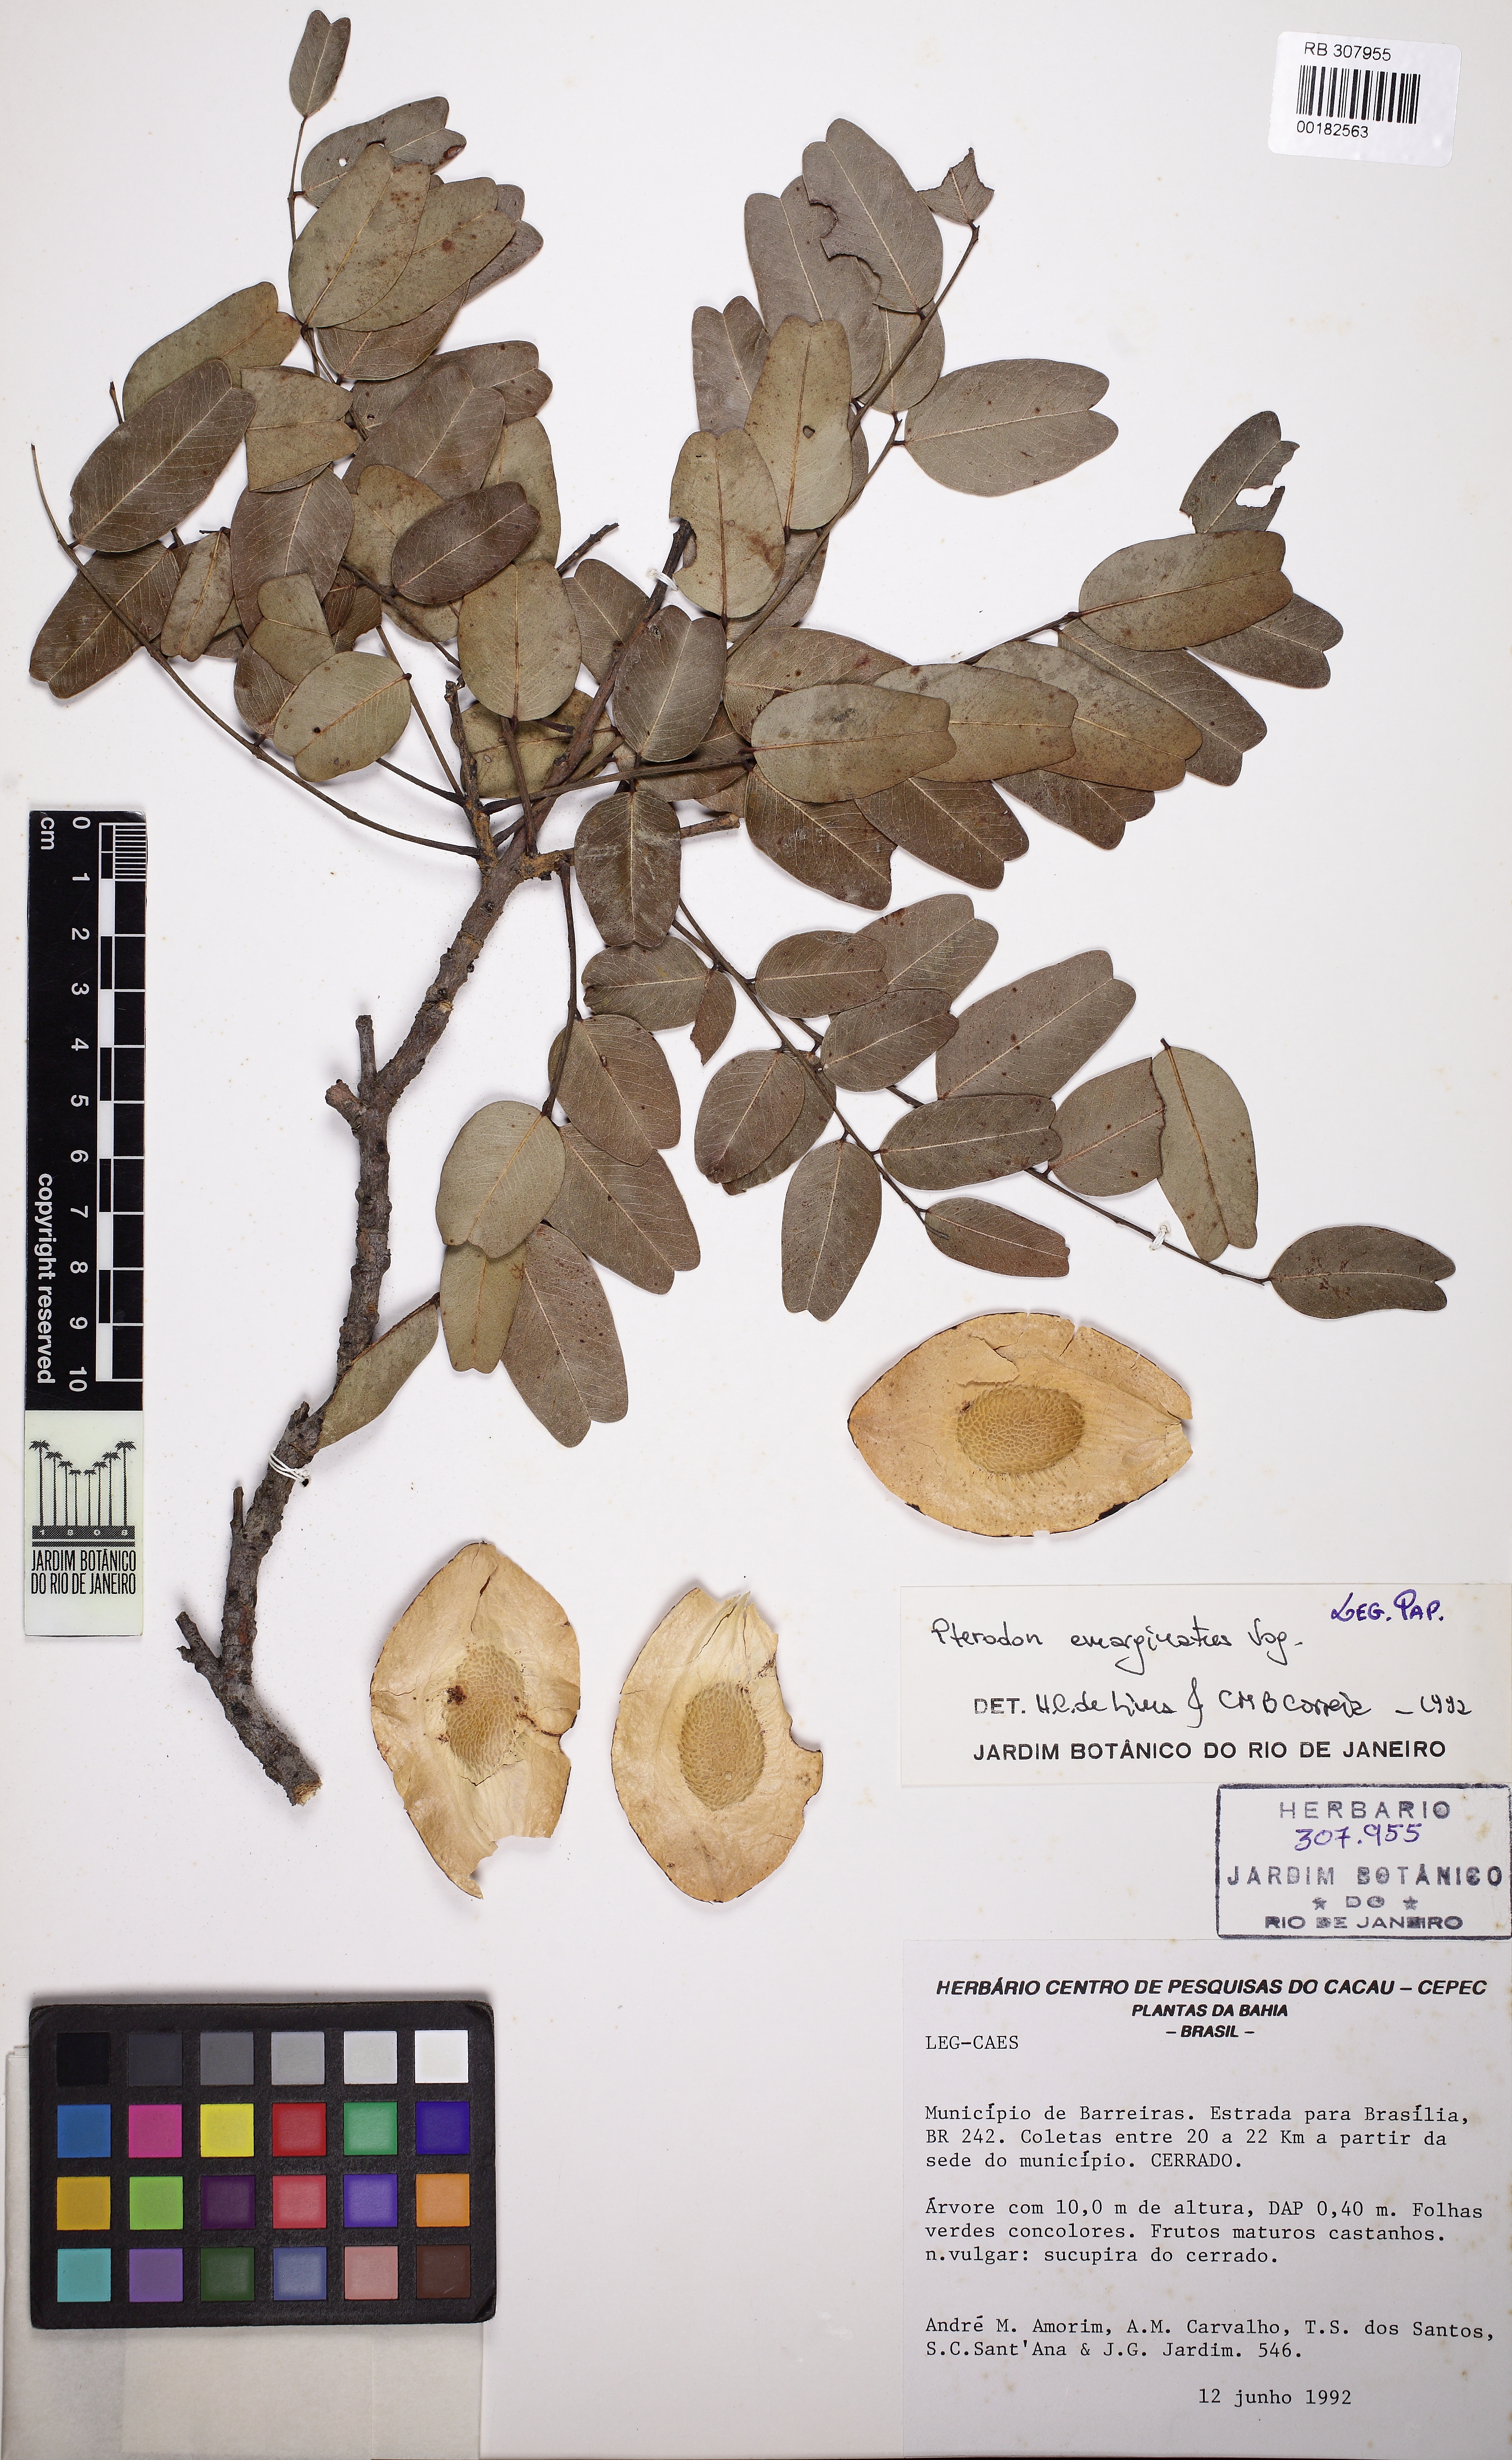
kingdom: Plantae
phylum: Tracheophyta
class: Magnoliopsida
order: Fabales
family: Fabaceae
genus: Pterodon
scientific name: Pterodon emarginatus
